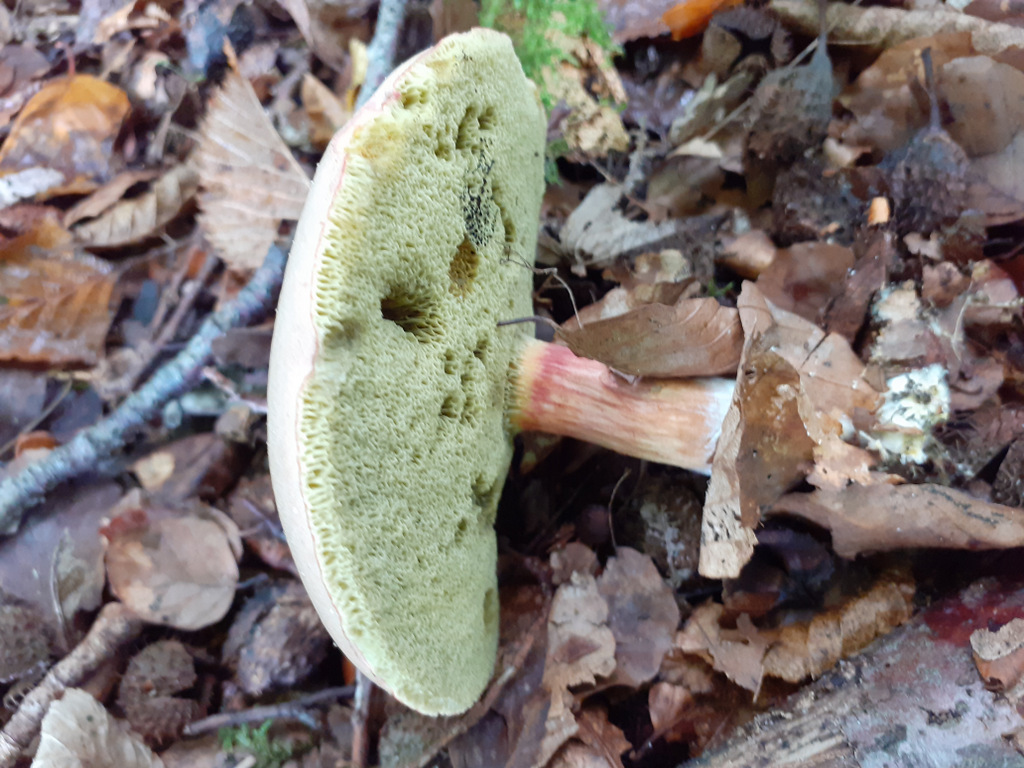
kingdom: Fungi
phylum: Basidiomycota
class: Agaricomycetes
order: Boletales
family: Boletaceae
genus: Xerocomellus
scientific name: Xerocomellus
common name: dværgrørhat
